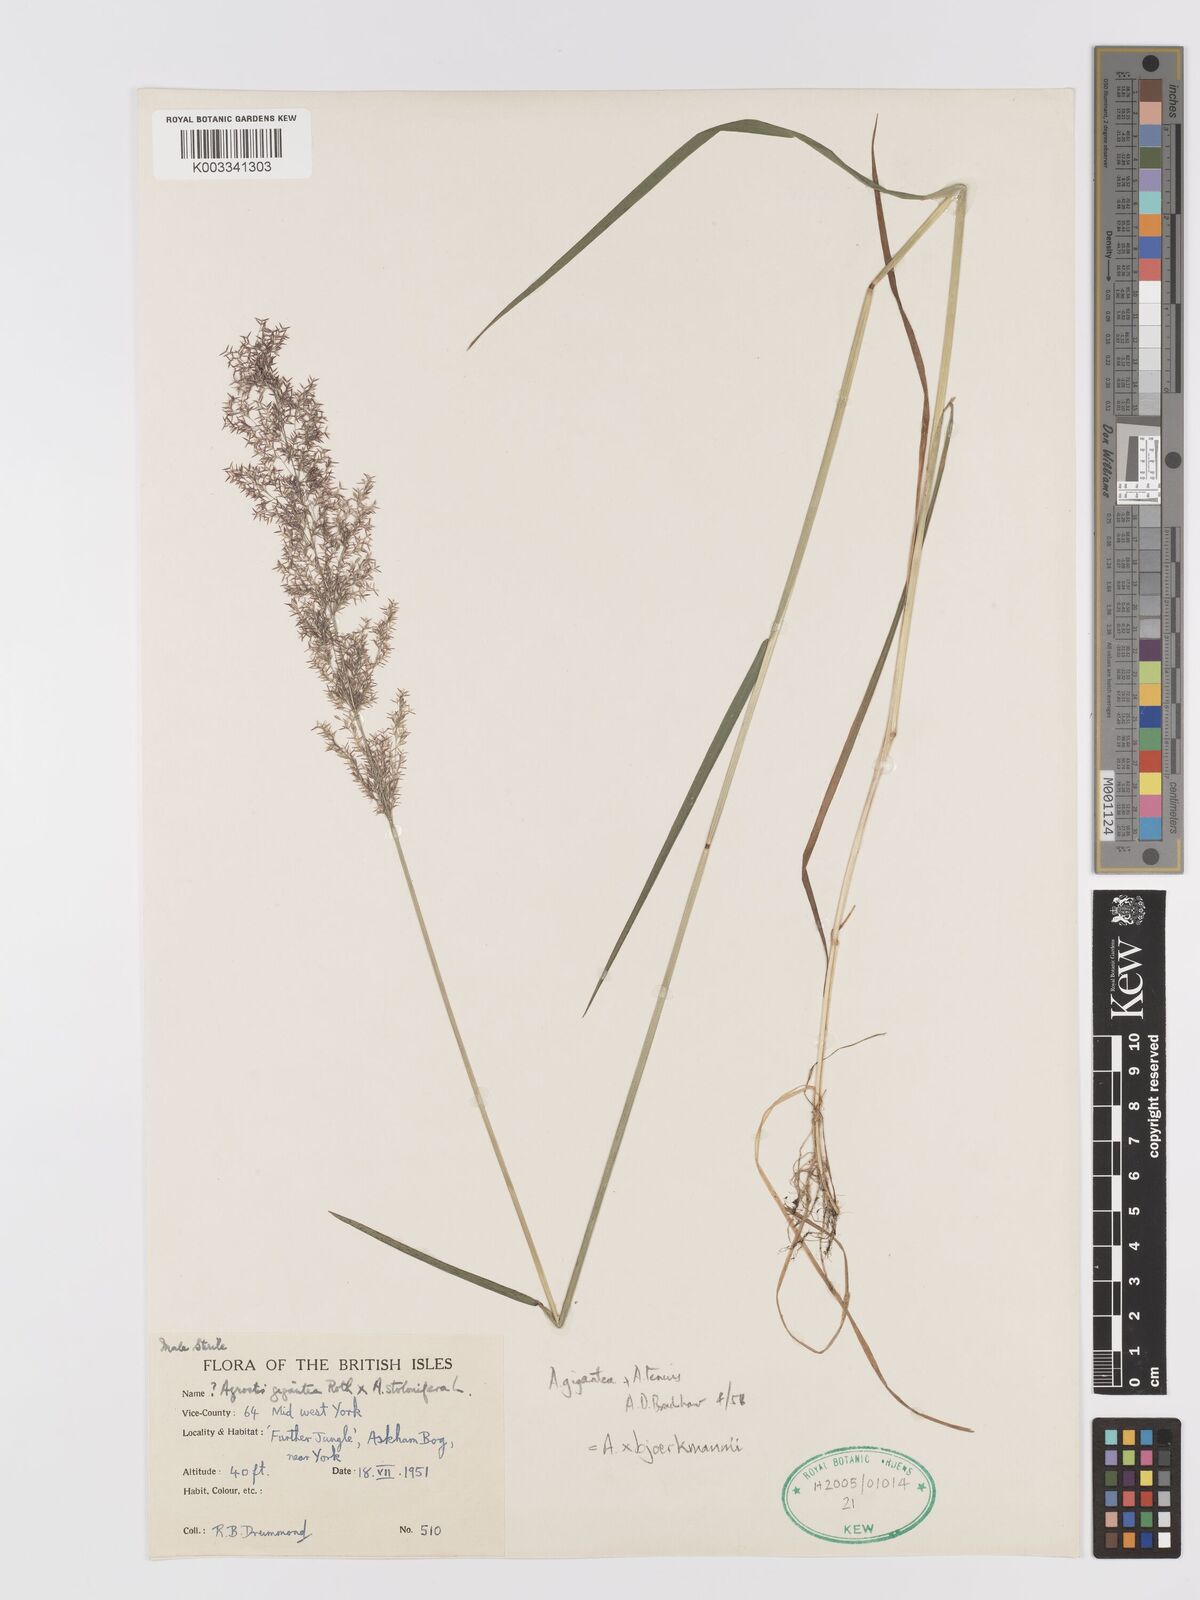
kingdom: Plantae
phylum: Tracheophyta
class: Liliopsida
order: Poales
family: Poaceae
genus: Agrostis
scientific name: Agrostis gigantea
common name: Black bent
